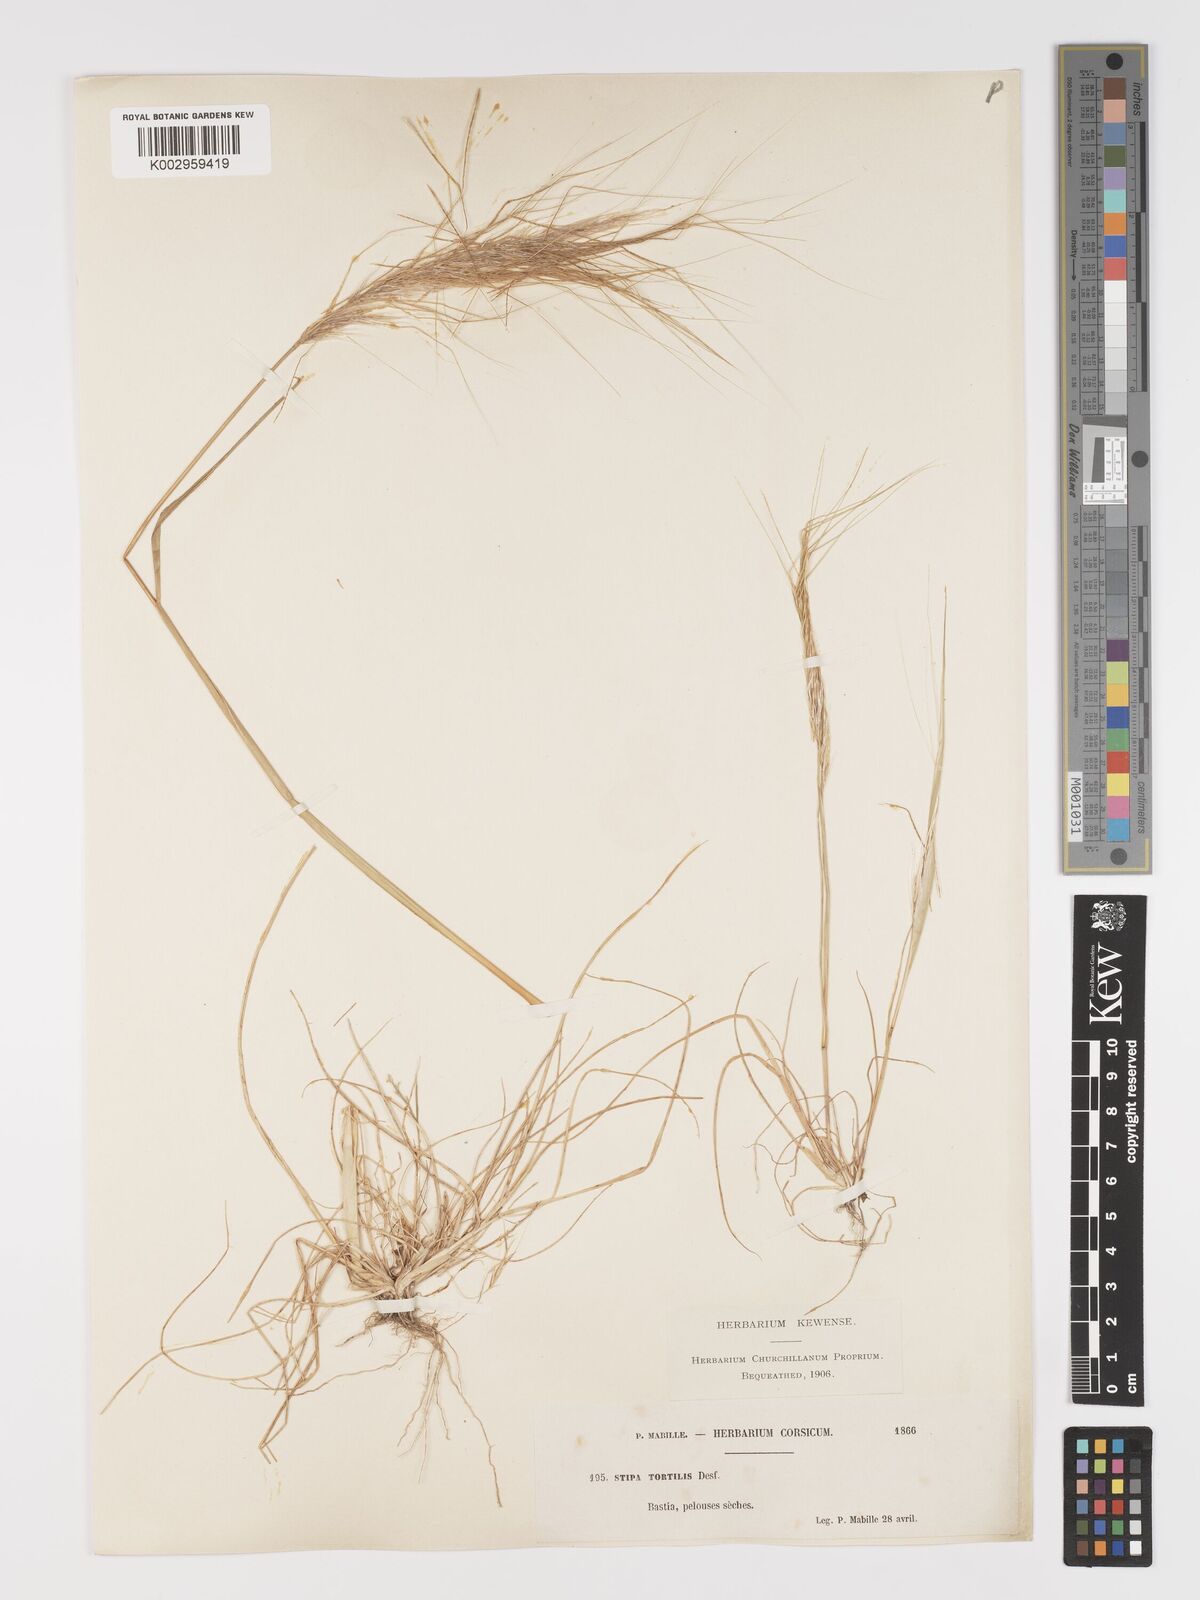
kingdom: Plantae
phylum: Tracheophyta
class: Liliopsida
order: Poales
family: Poaceae
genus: Stipa
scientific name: Stipa
